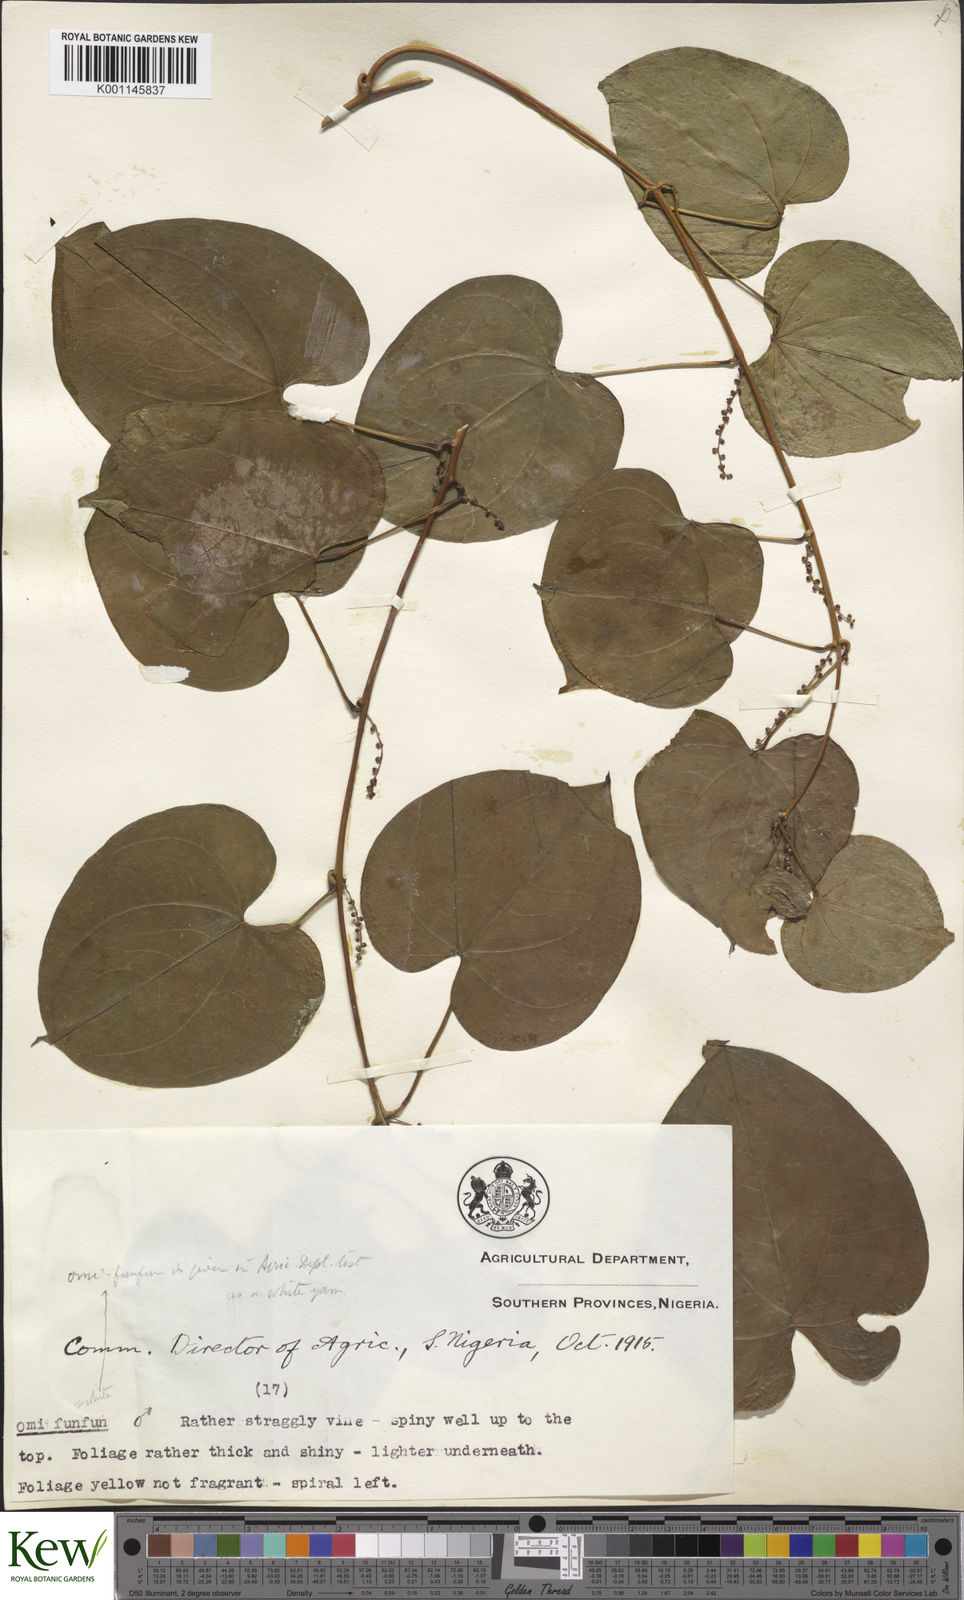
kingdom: Plantae
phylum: Tracheophyta
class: Liliopsida
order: Dioscoreales
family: Dioscoreaceae
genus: Dioscorea
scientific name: Dioscorea cayenensis
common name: Attoto yam
